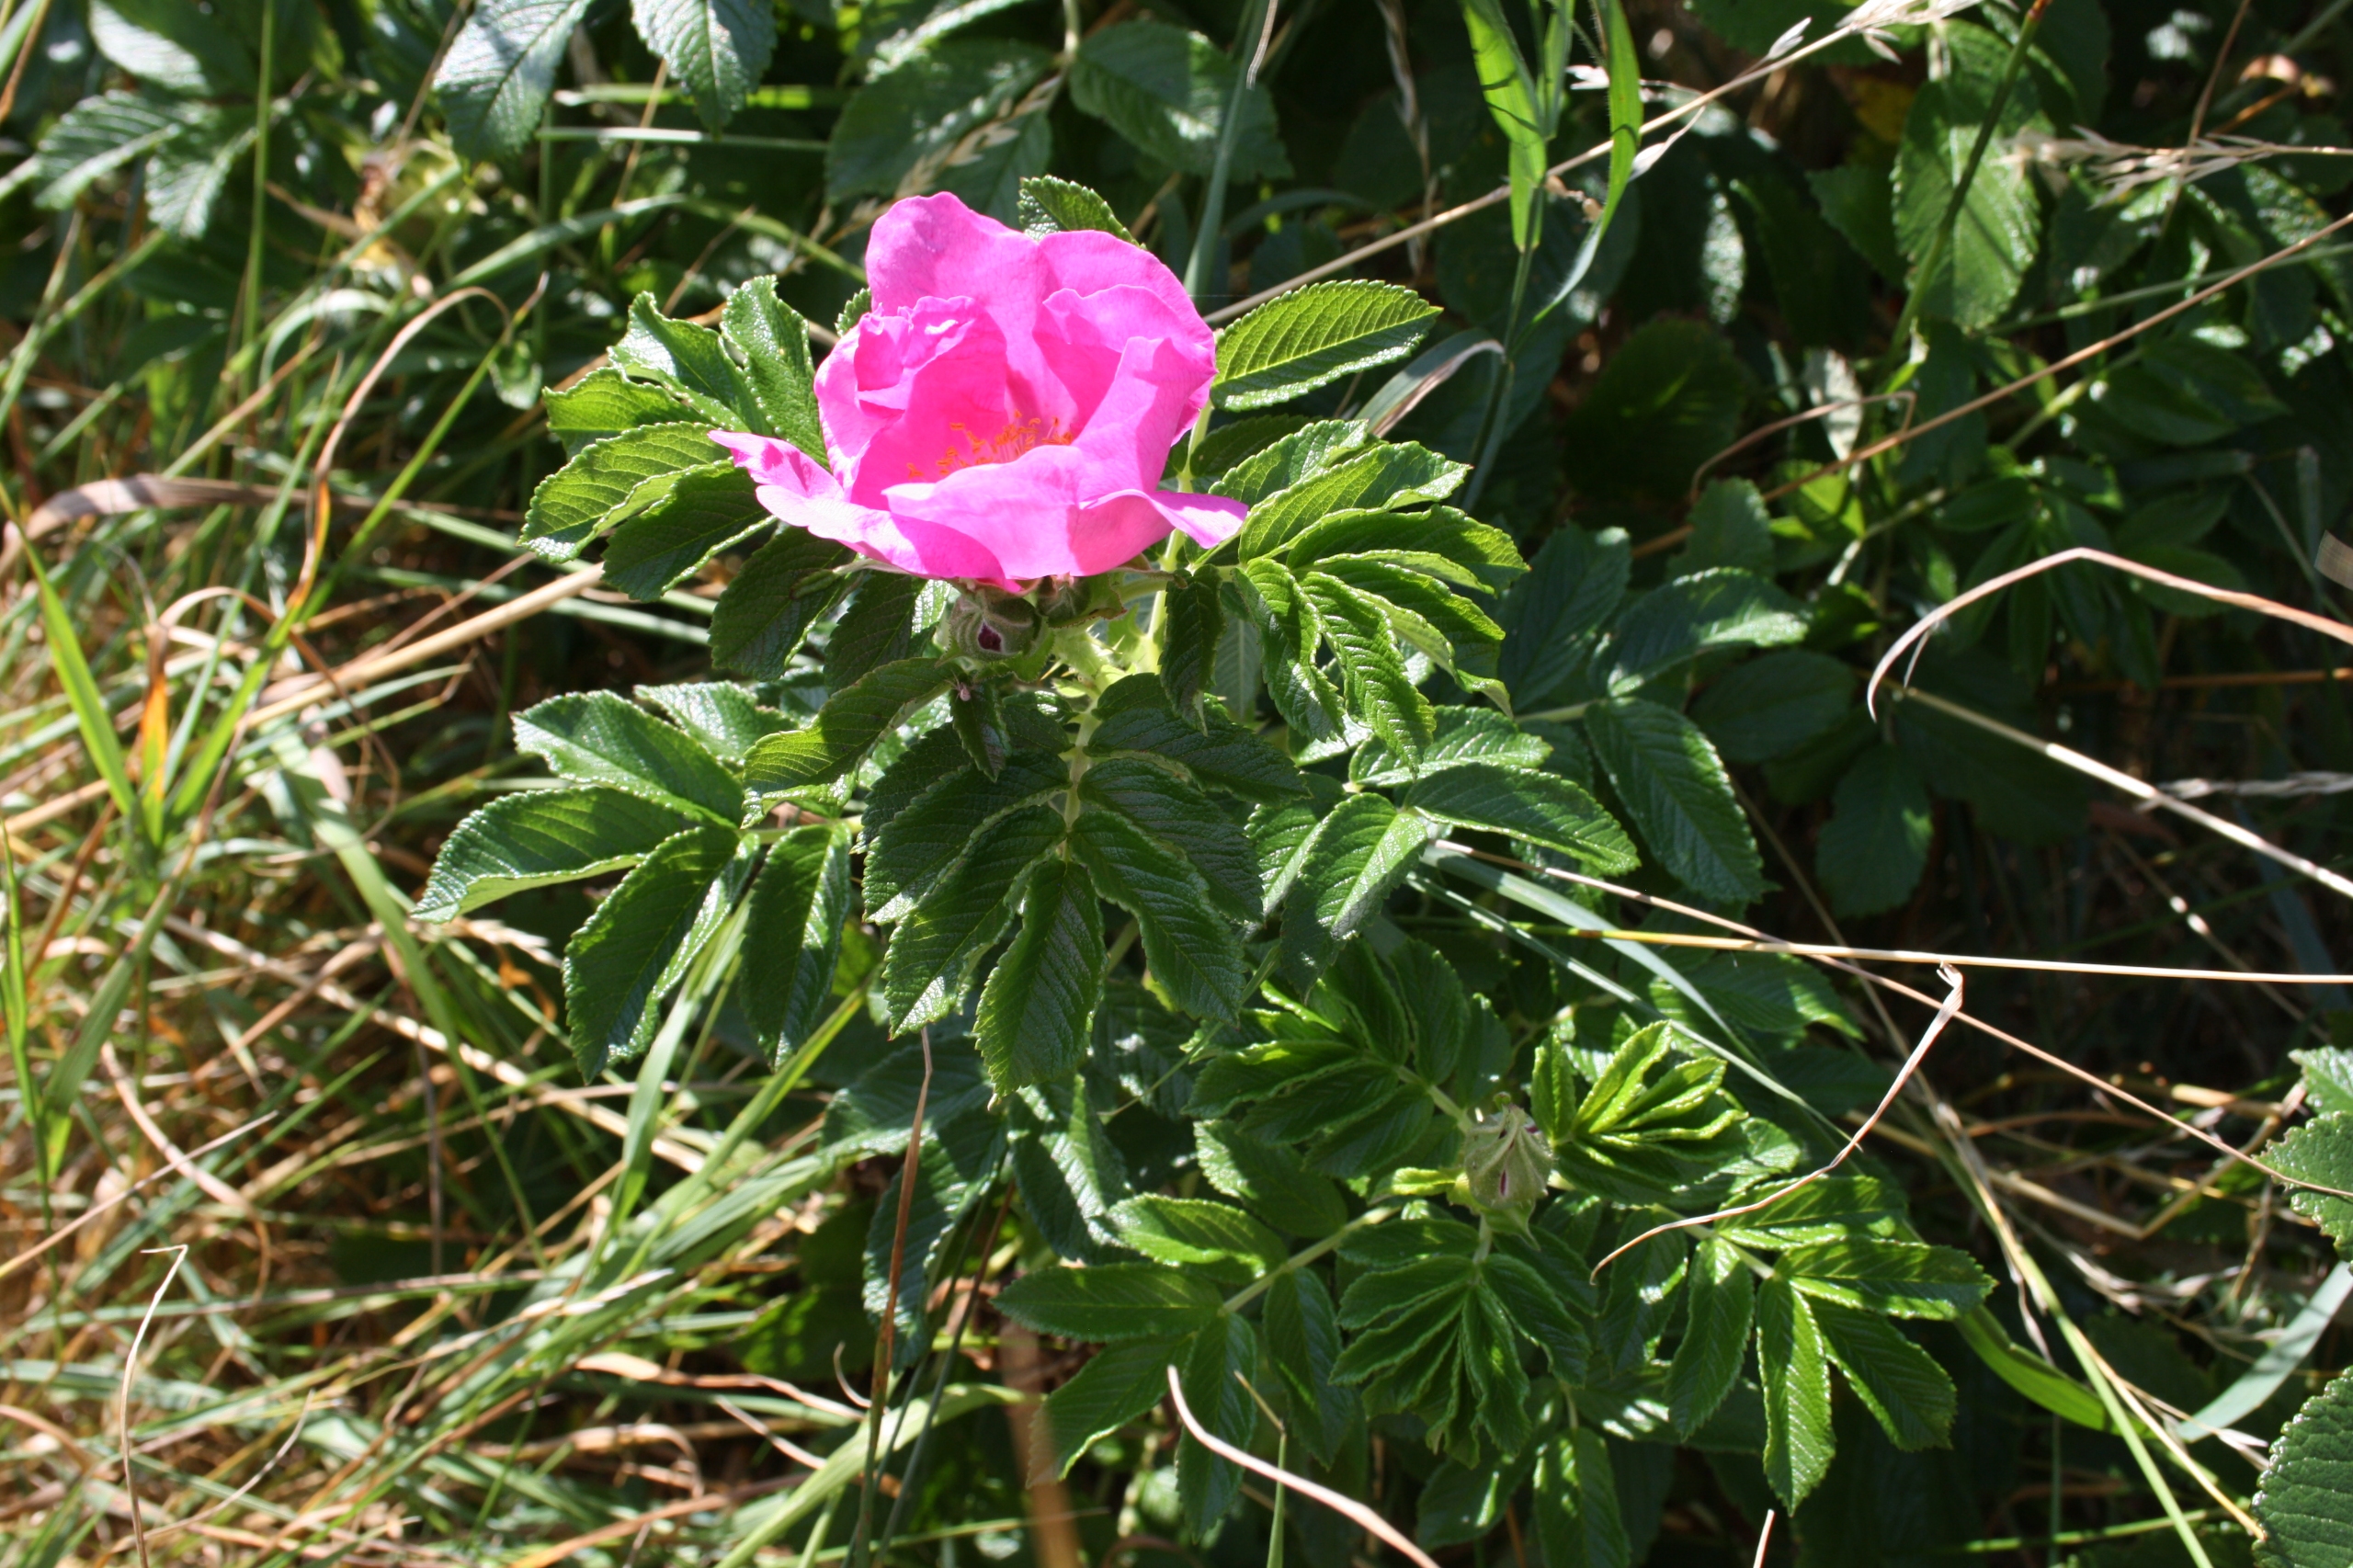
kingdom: Plantae
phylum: Tracheophyta
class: Magnoliopsida
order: Rosales
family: Rosaceae
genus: Rosa
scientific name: Rosa rugosa
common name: Rynket rose
